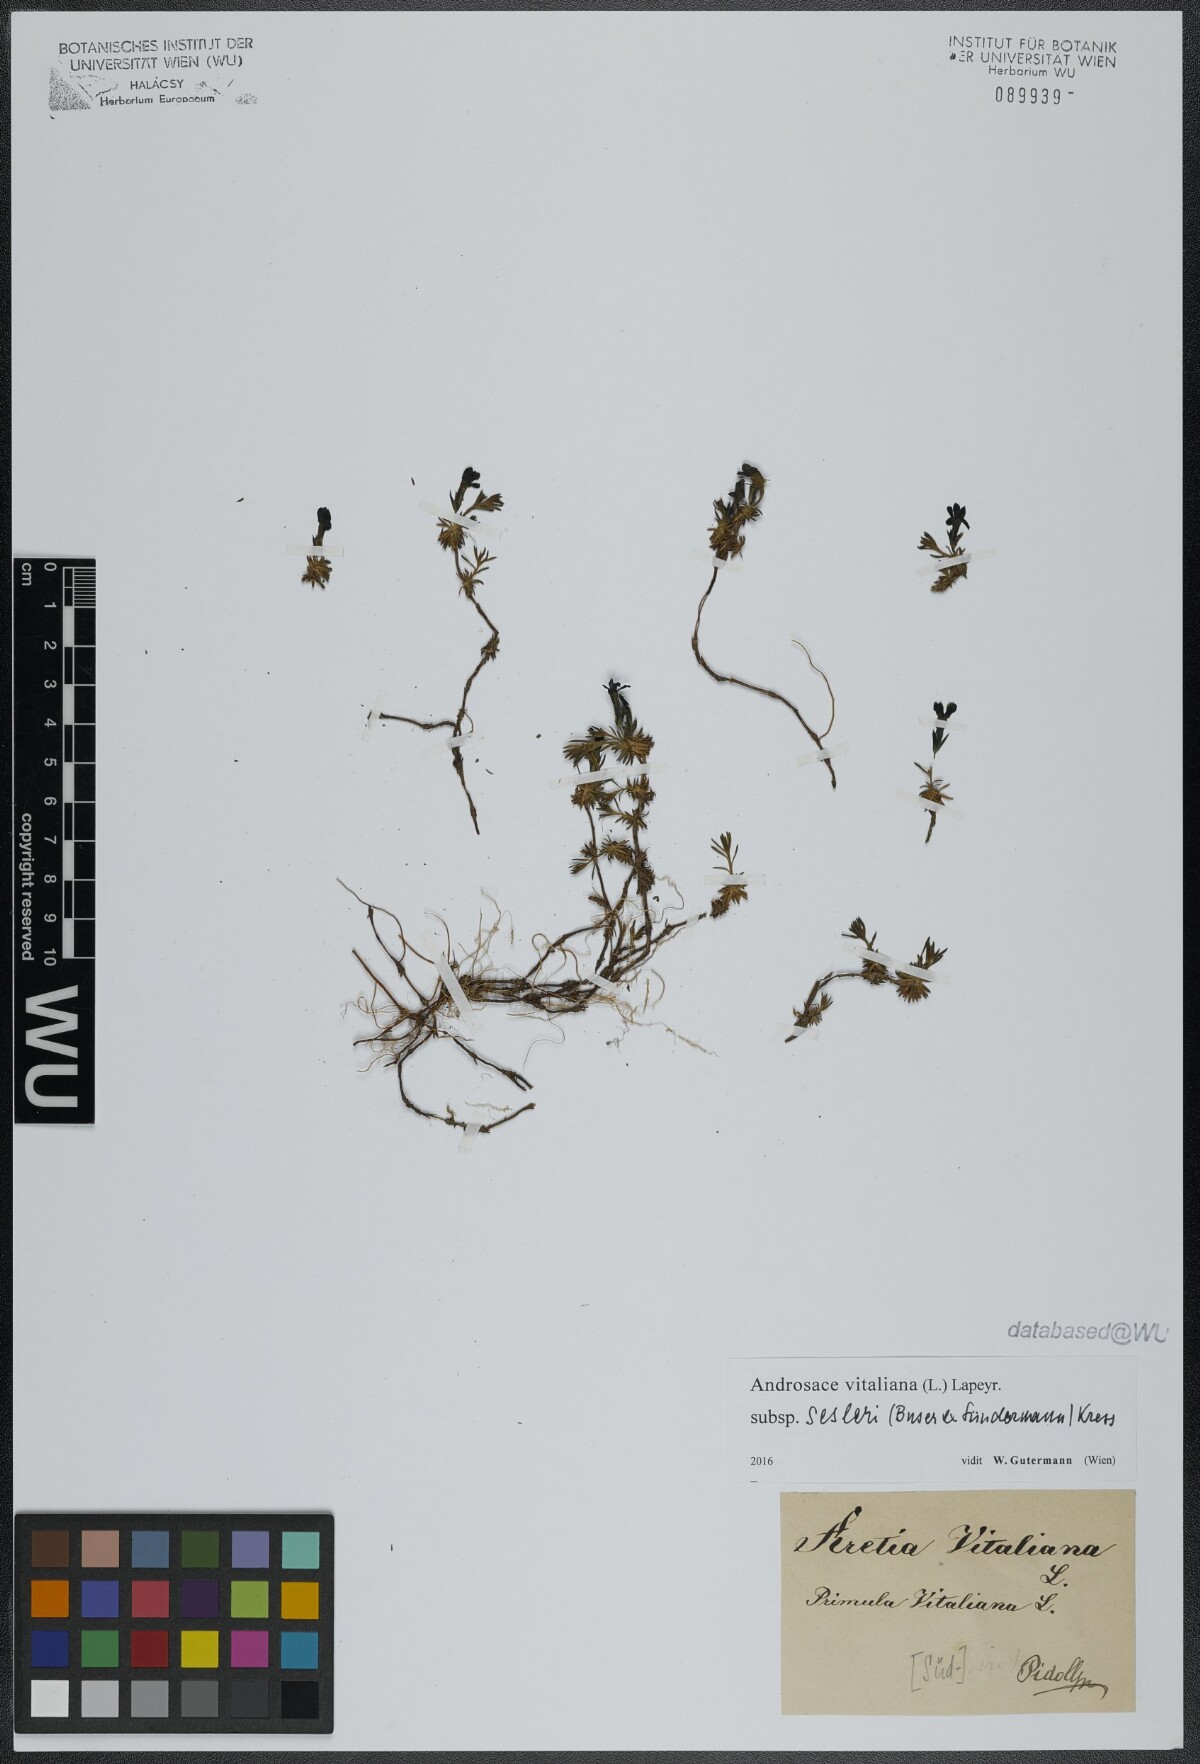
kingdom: Plantae
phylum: Tracheophyta
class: Magnoliopsida
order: Ericales
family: Primulaceae
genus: Androsace
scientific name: Androsace vitaliana
